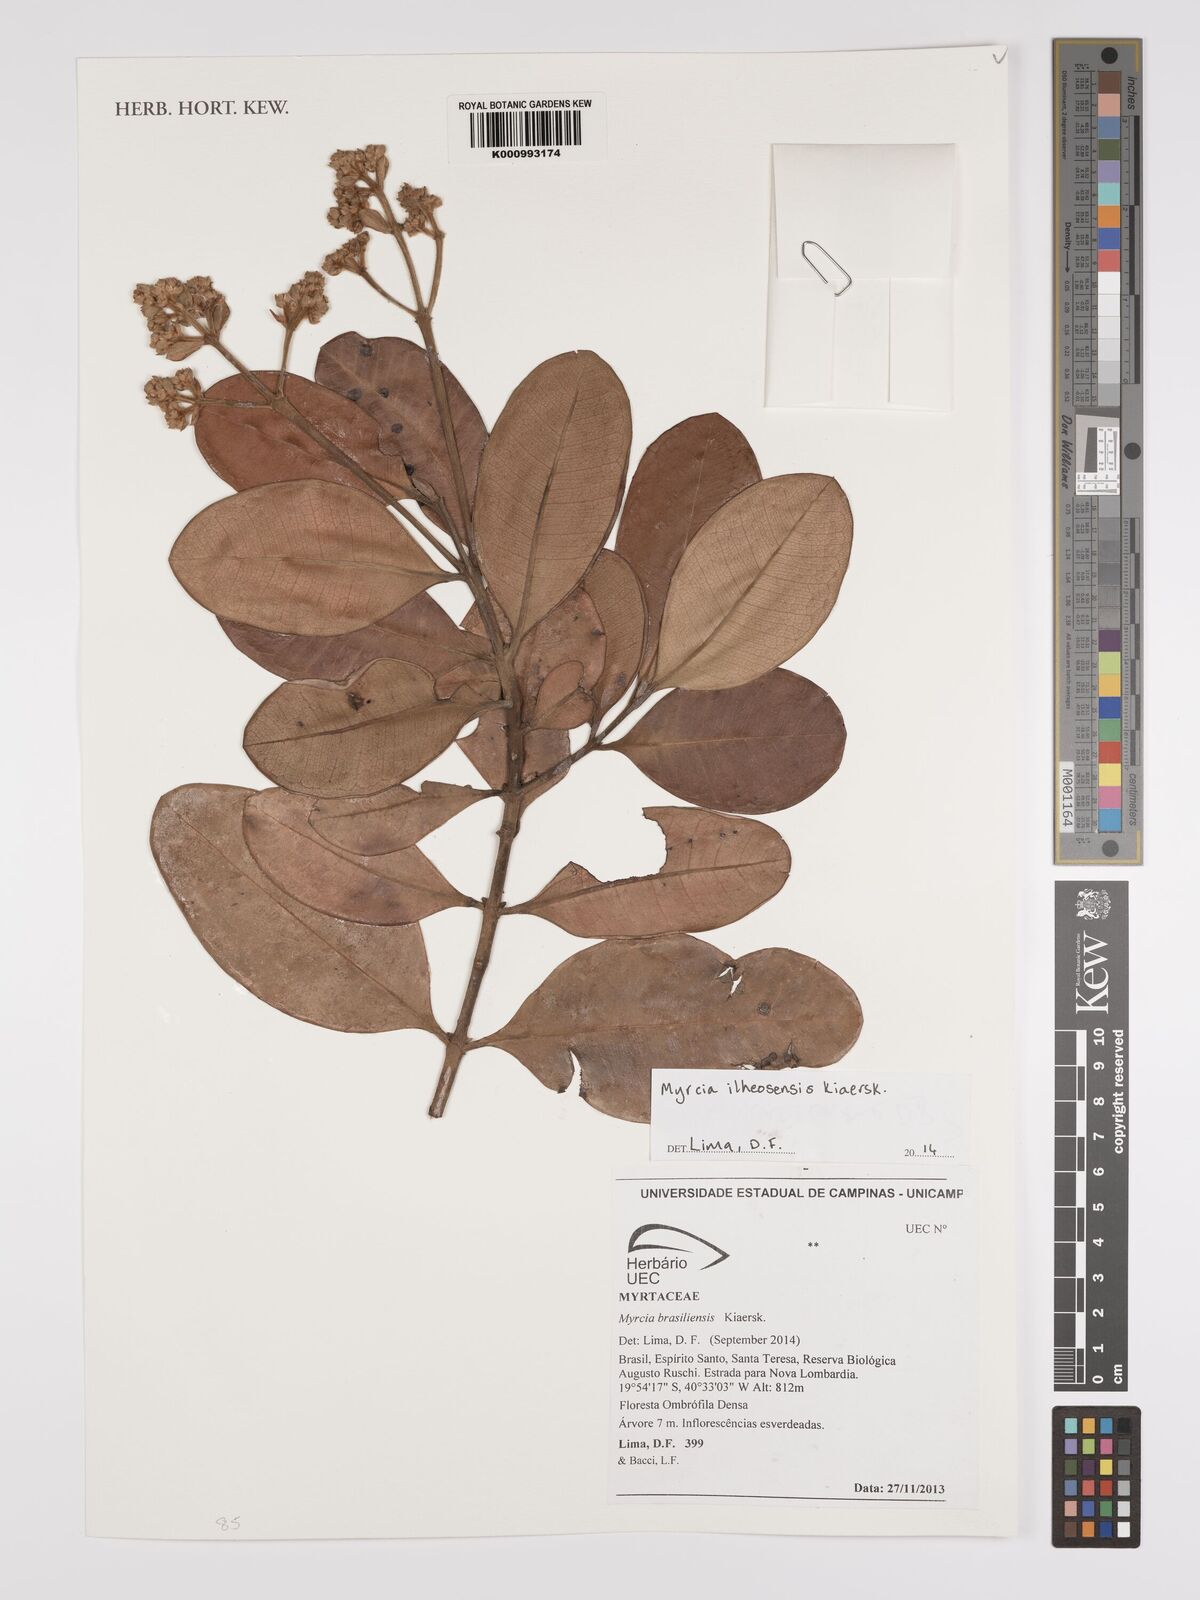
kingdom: Plantae
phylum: Tracheophyta
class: Magnoliopsida
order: Myrtales
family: Myrtaceae
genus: Myrcia
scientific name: Myrcia ilheosensis
